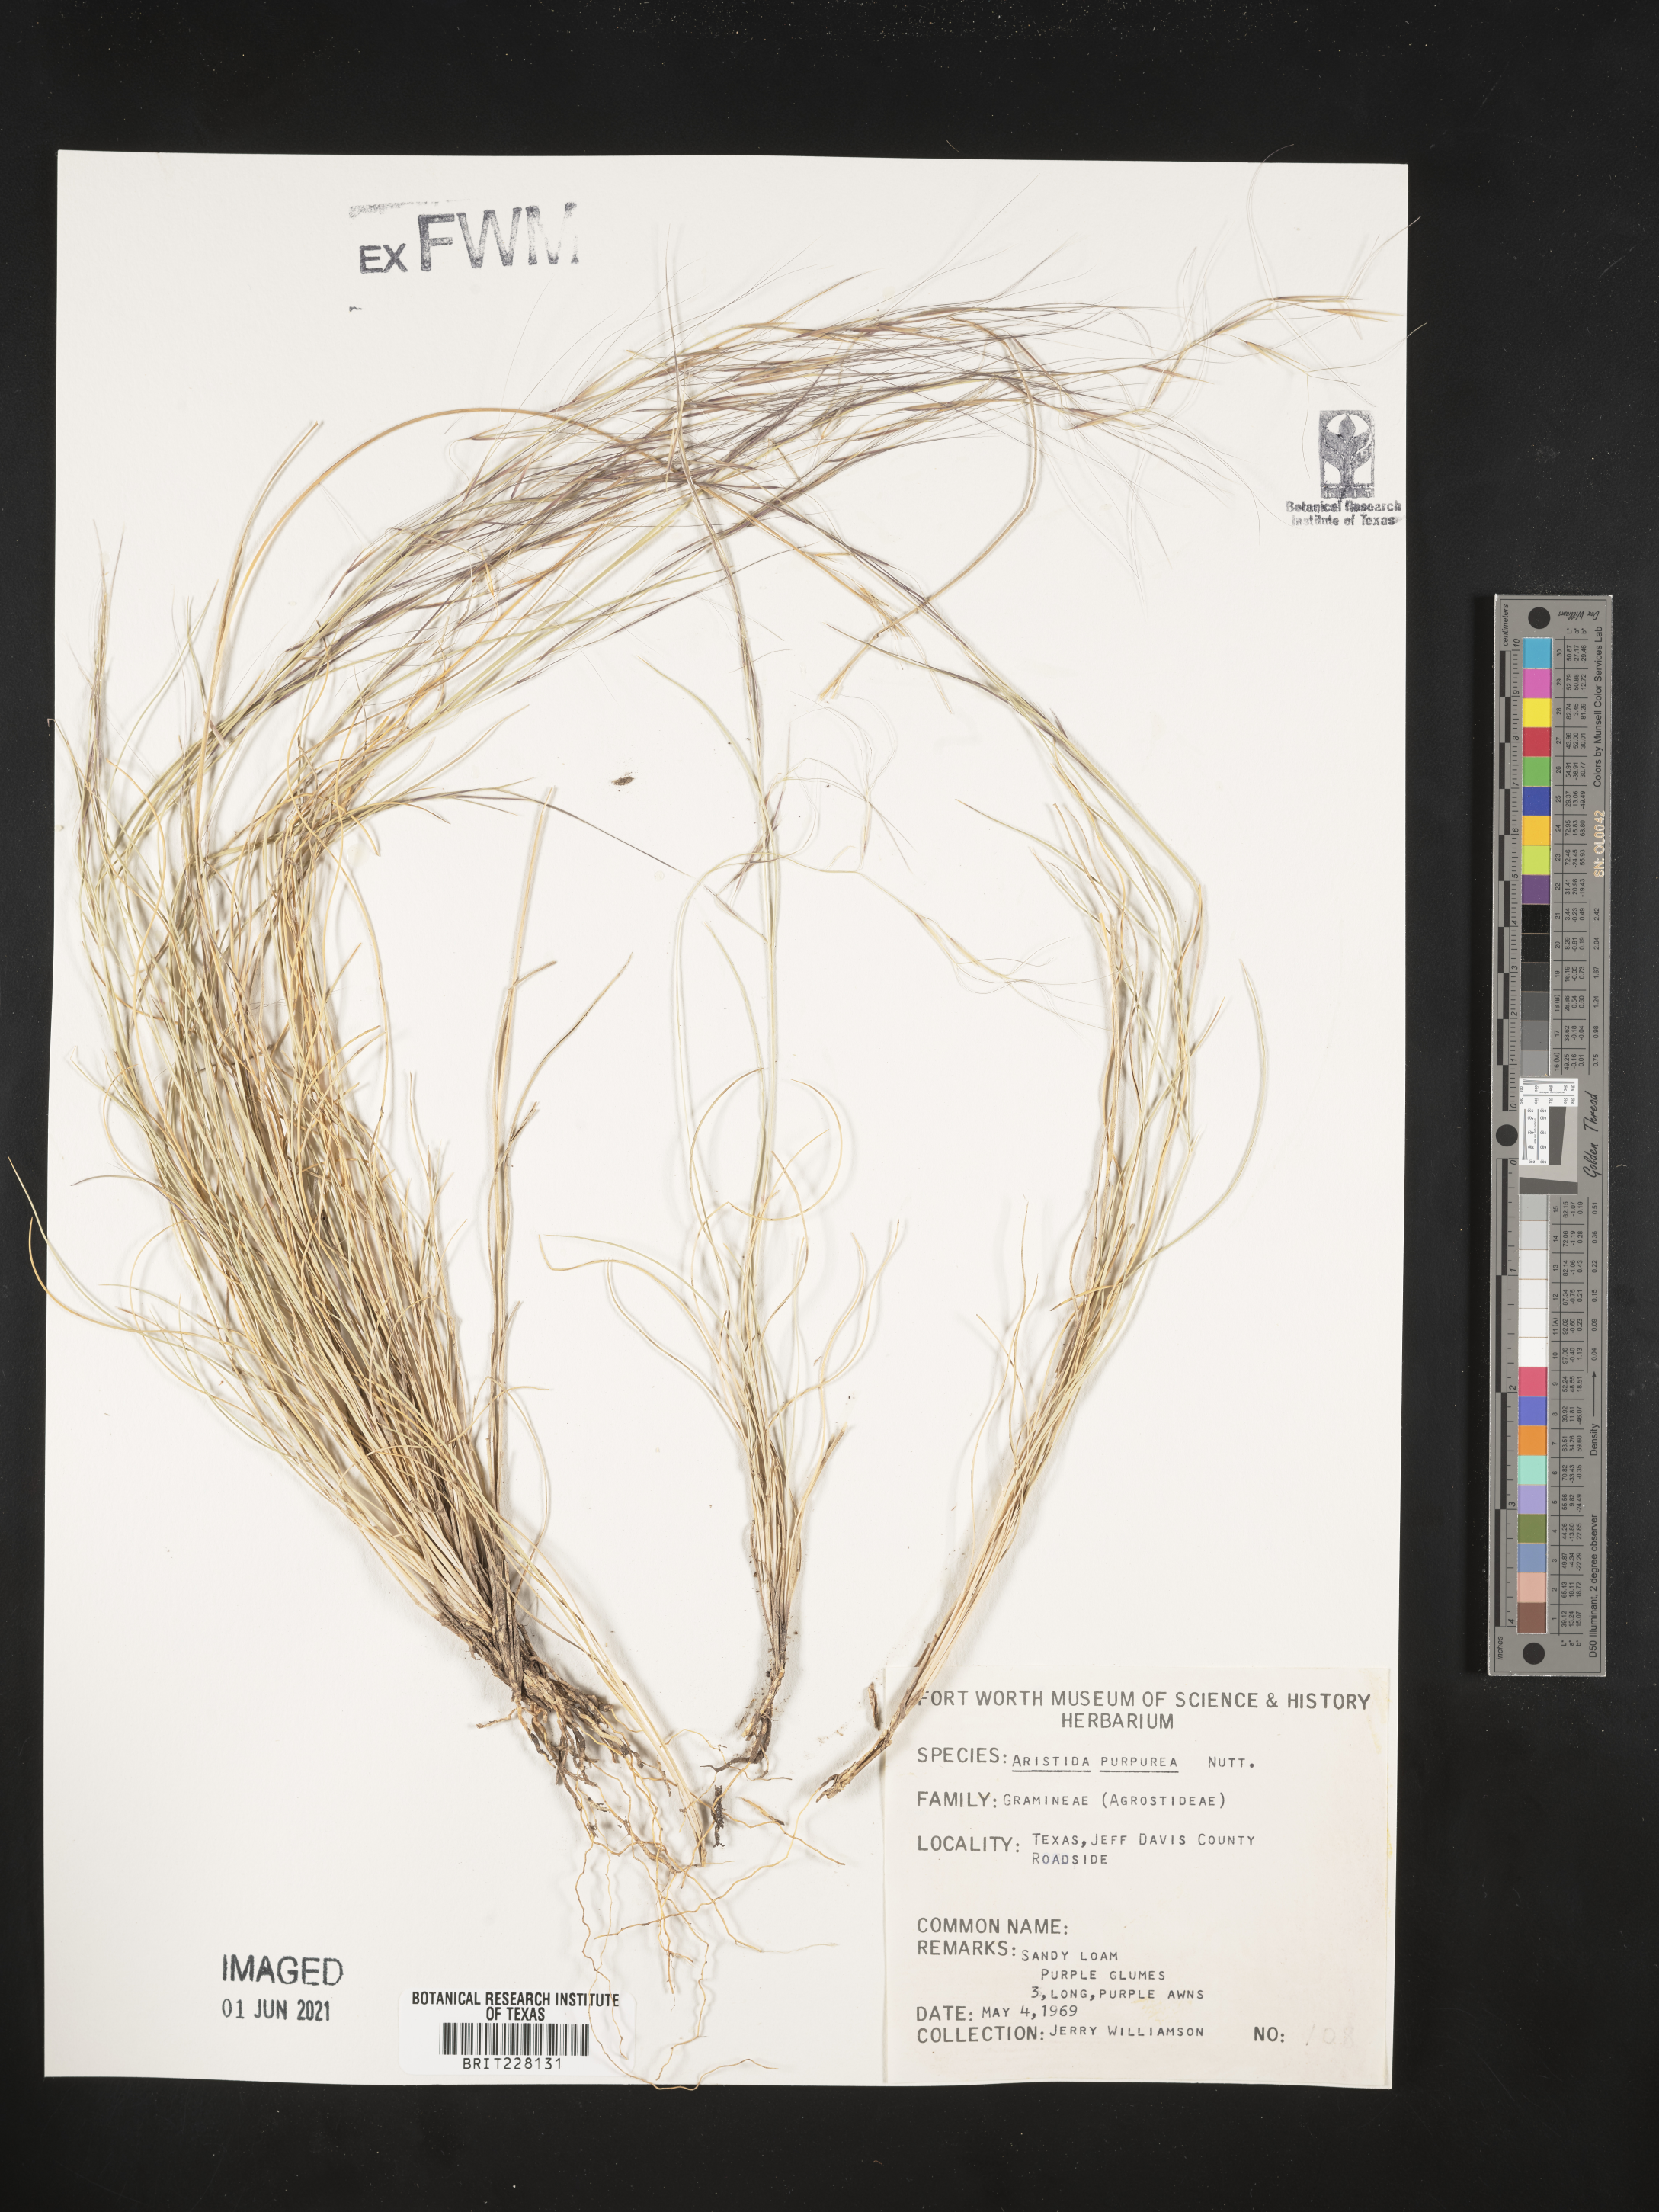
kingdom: Plantae
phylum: Tracheophyta
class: Liliopsida
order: Poales
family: Poaceae
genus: Aristida
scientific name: Aristida purpurea
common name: Purple threeawn
